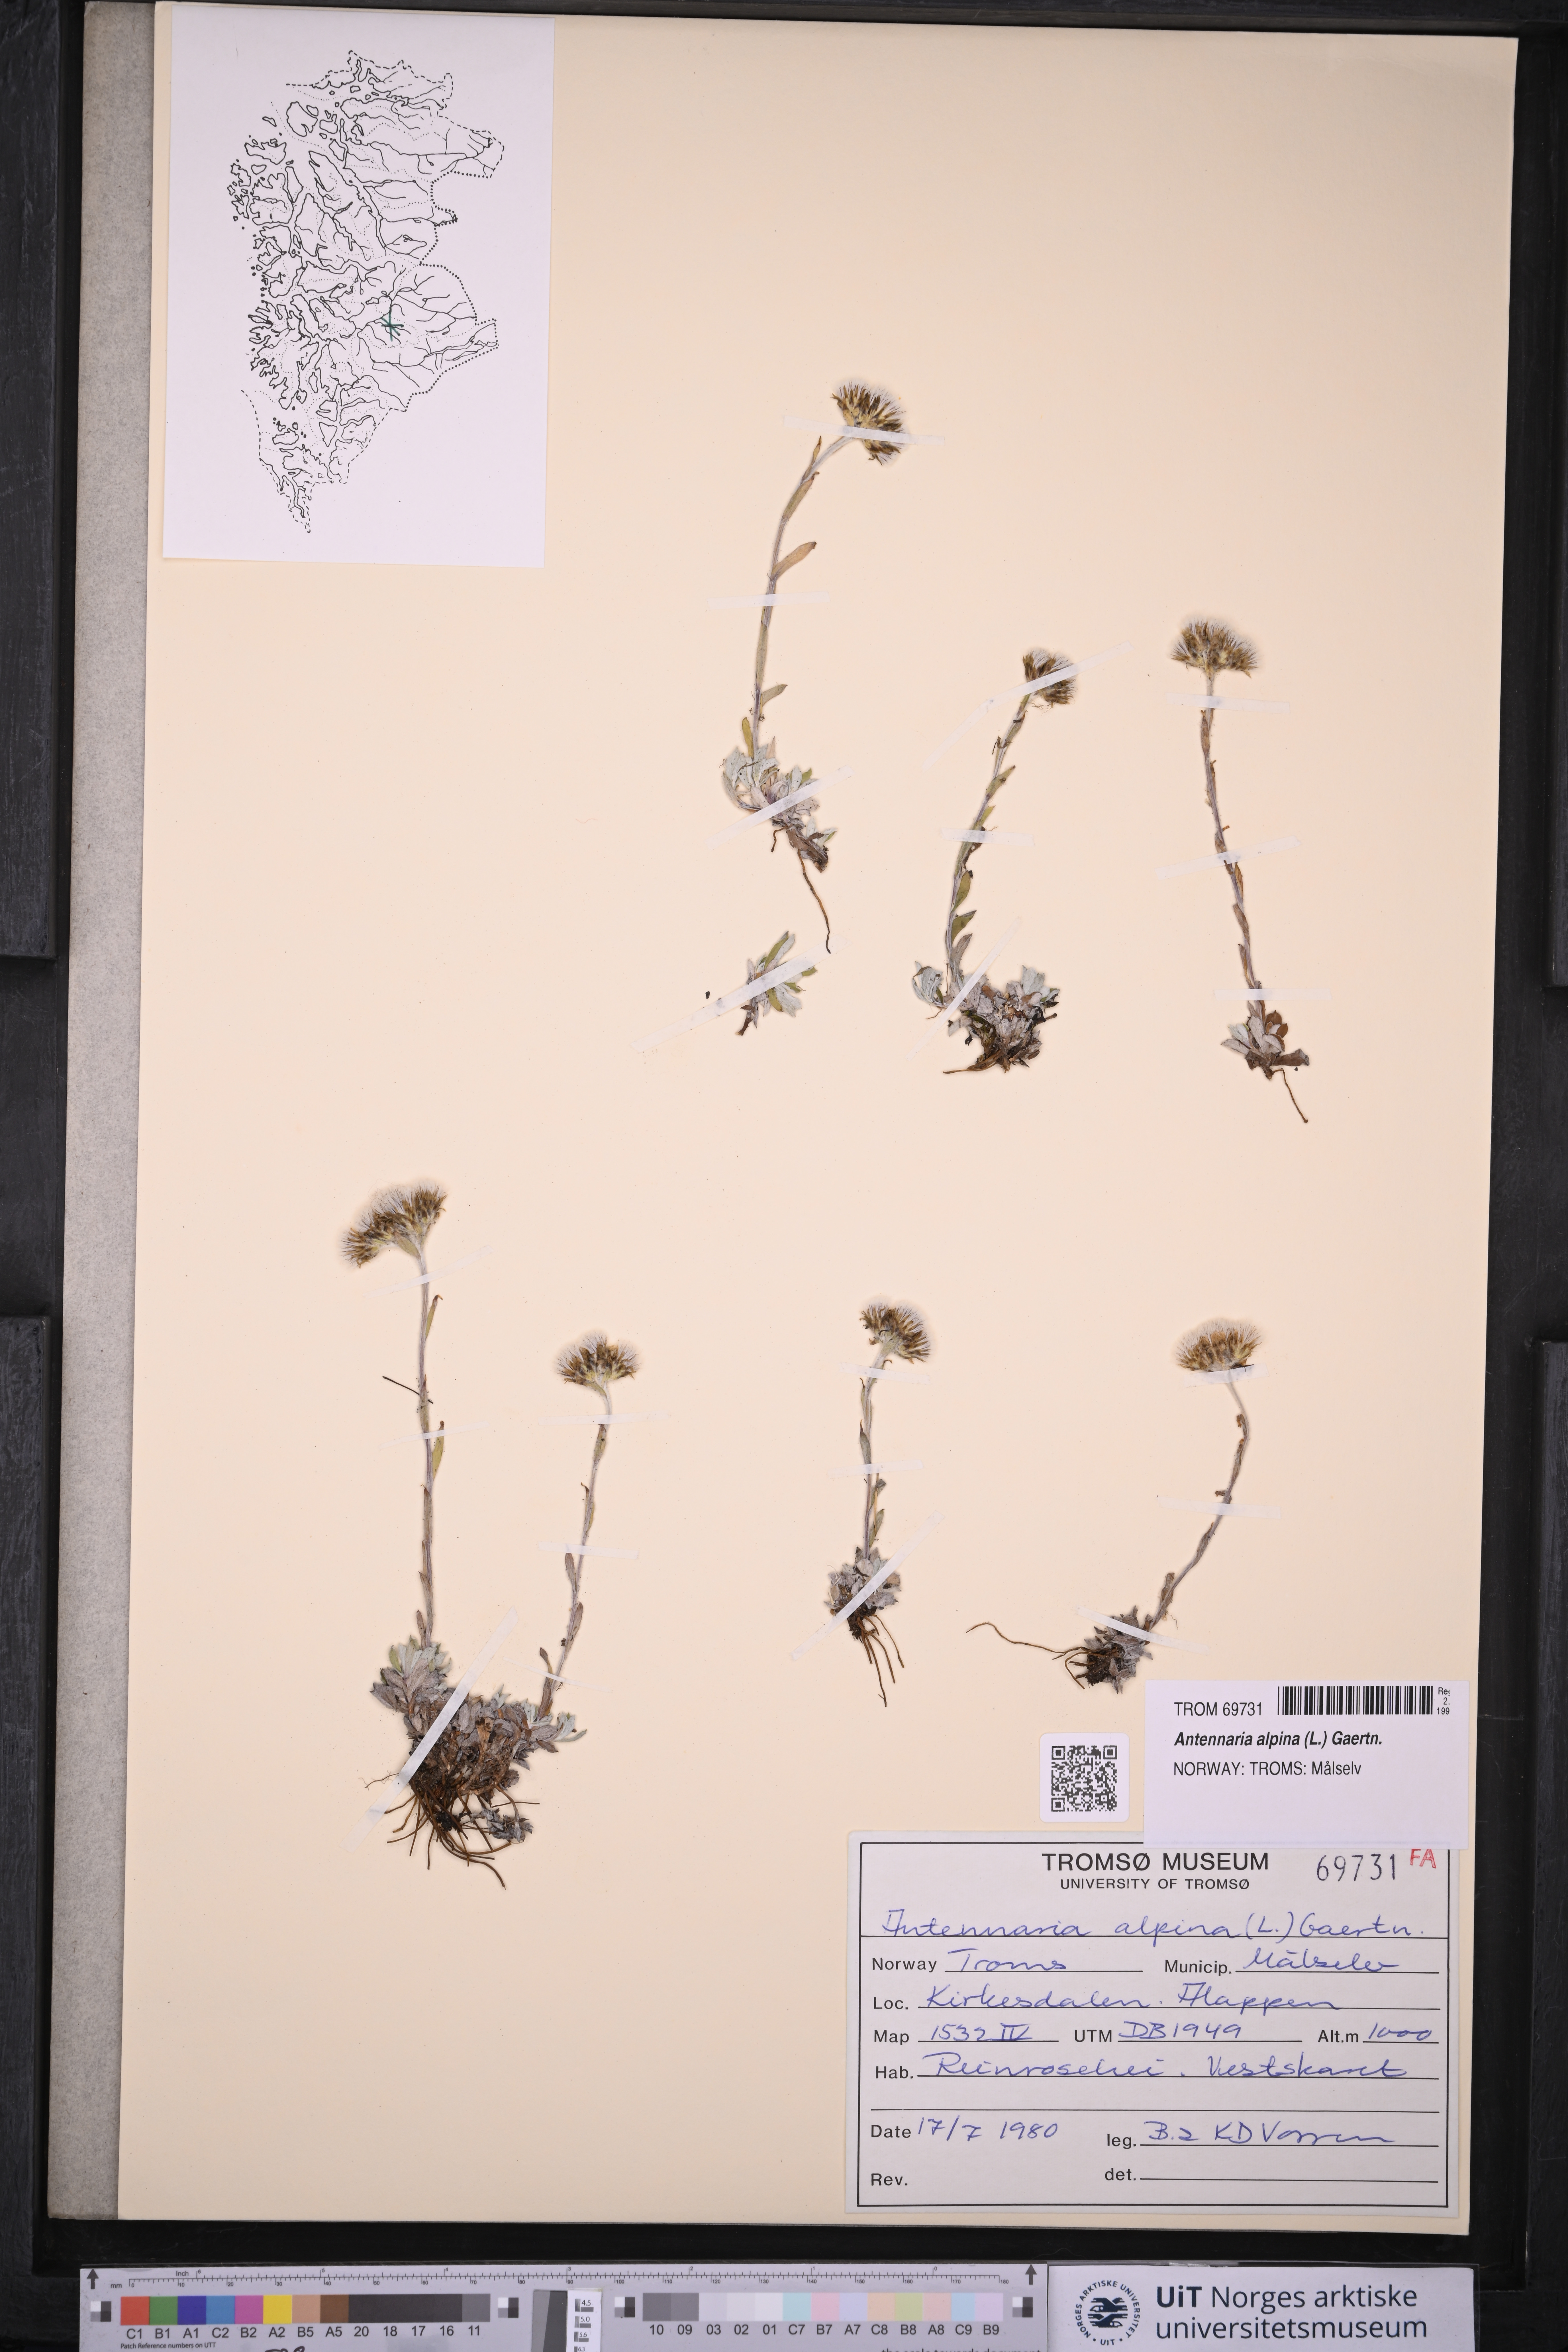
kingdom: Plantae
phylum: Tracheophyta
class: Magnoliopsida
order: Asterales
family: Asteraceae
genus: Antennaria
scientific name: Antennaria alpina
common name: Alpine pussytoes
